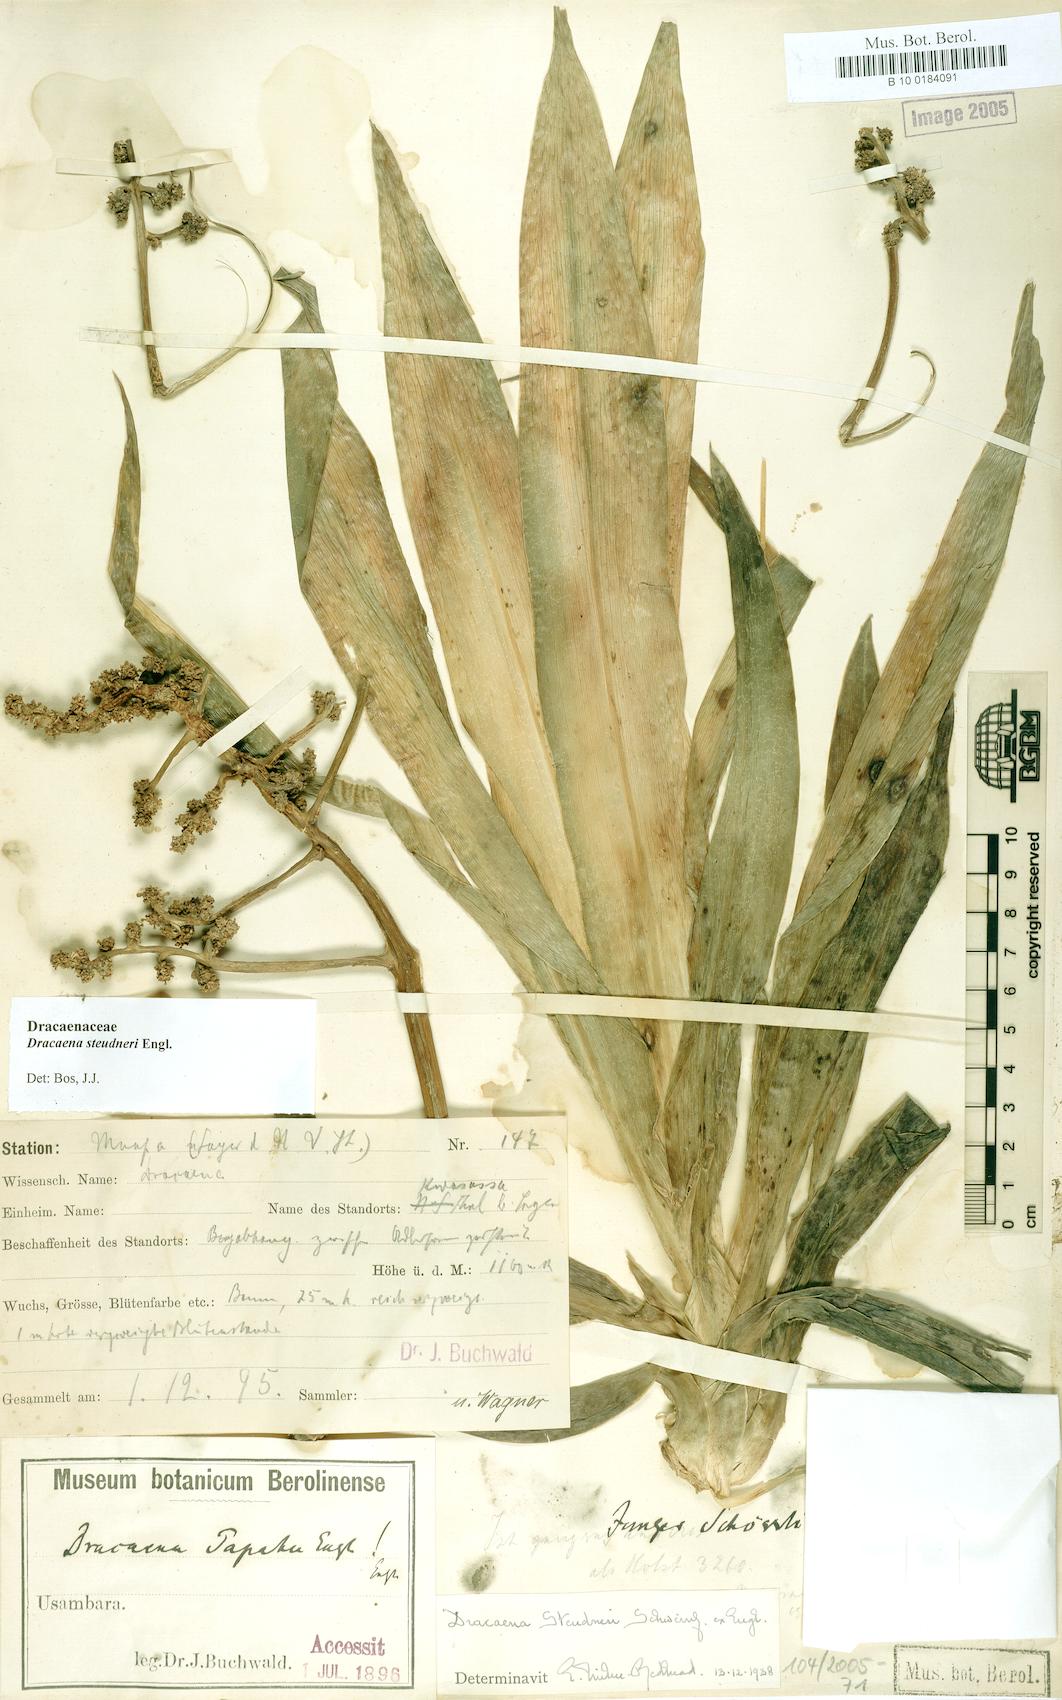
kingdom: Plantae
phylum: Tracheophyta
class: Liliopsida
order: Asparagales
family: Asparagaceae
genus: Dracaena
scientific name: Dracaena steudneri
